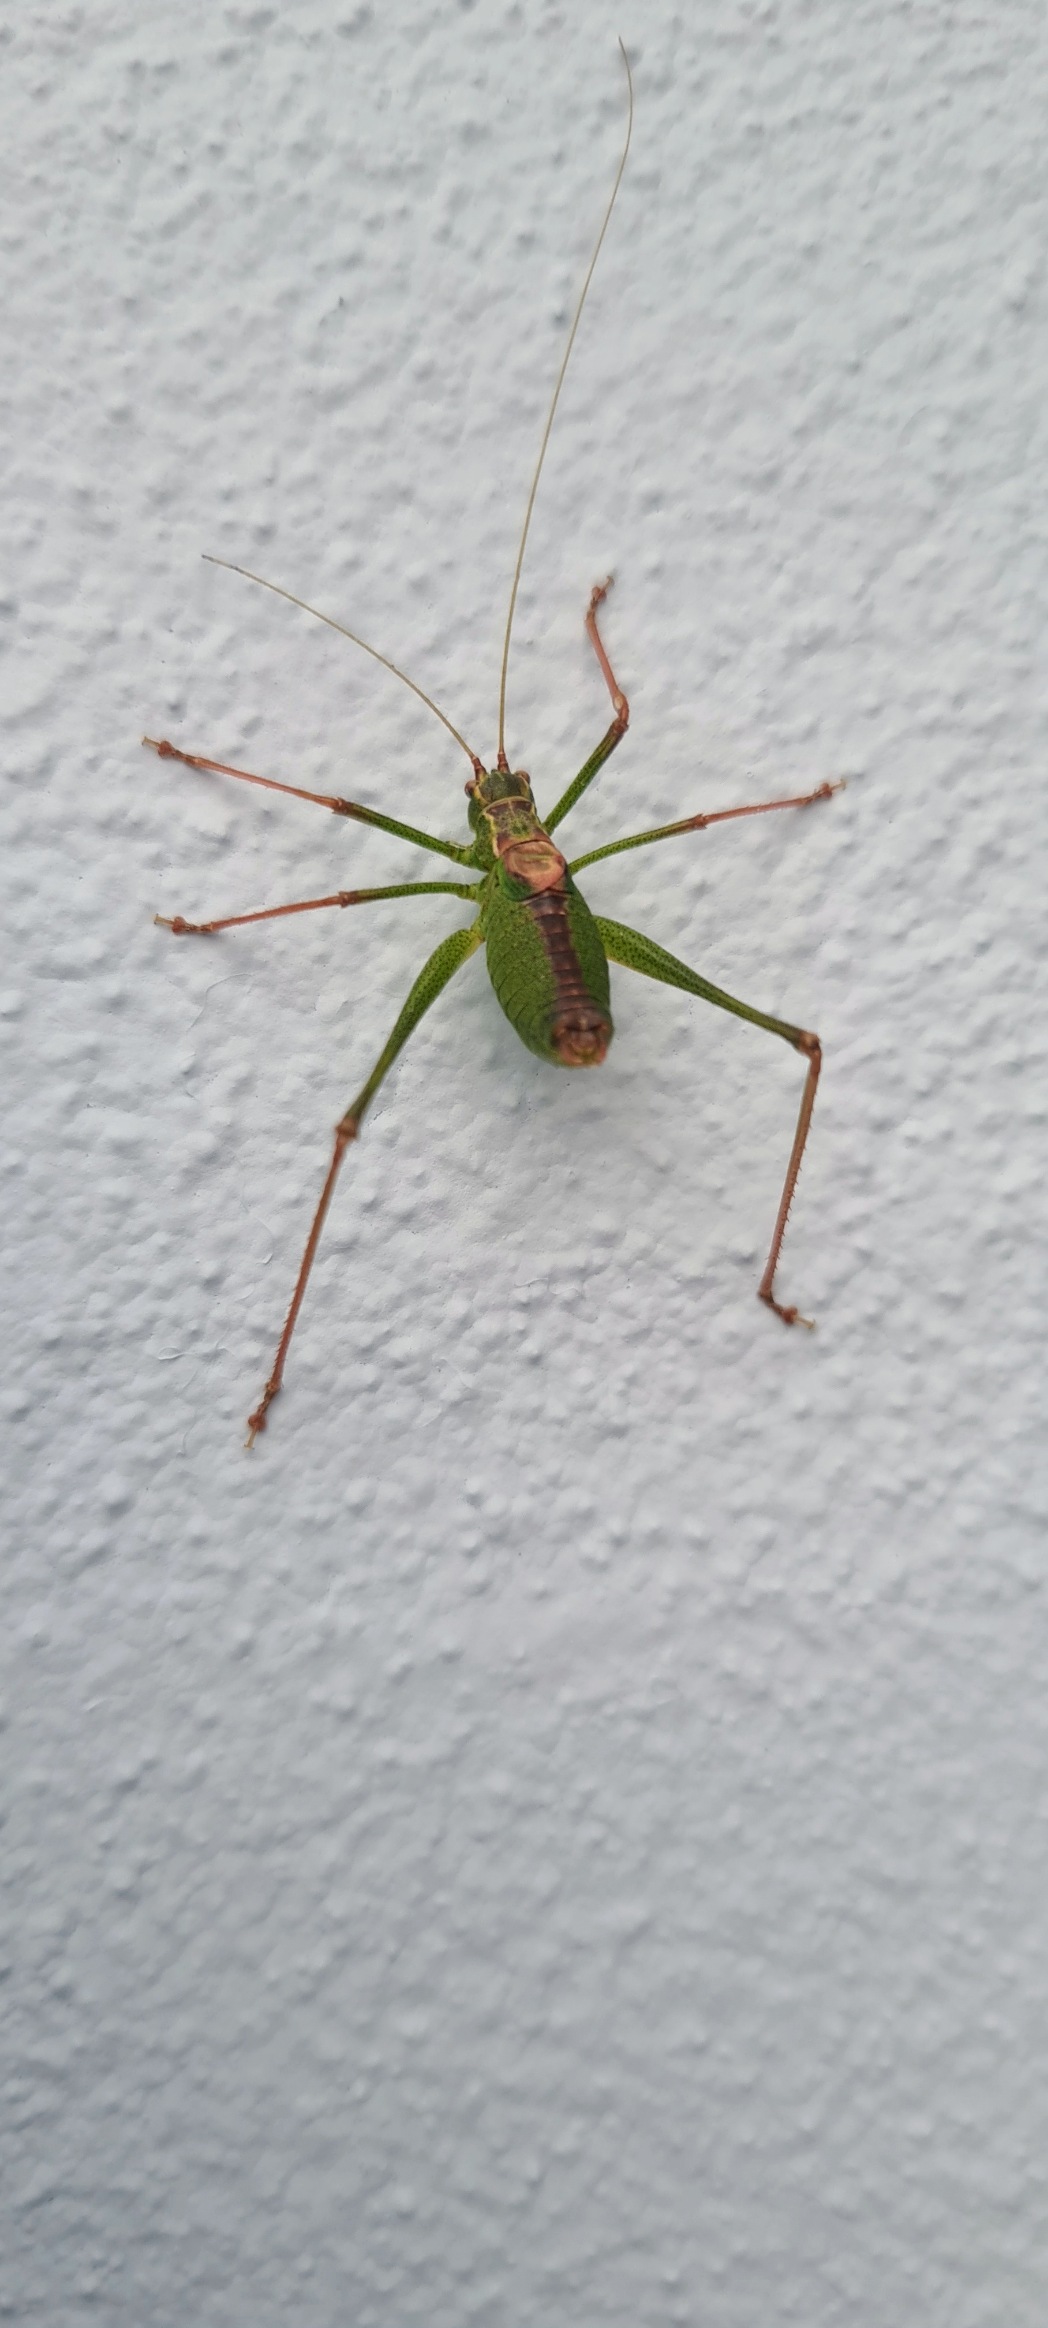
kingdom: Animalia
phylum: Arthropoda
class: Insecta
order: Orthoptera
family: Tettigoniidae
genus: Leptophyes
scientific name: Leptophyes punctatissima
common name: Krumknivgræshoppe
